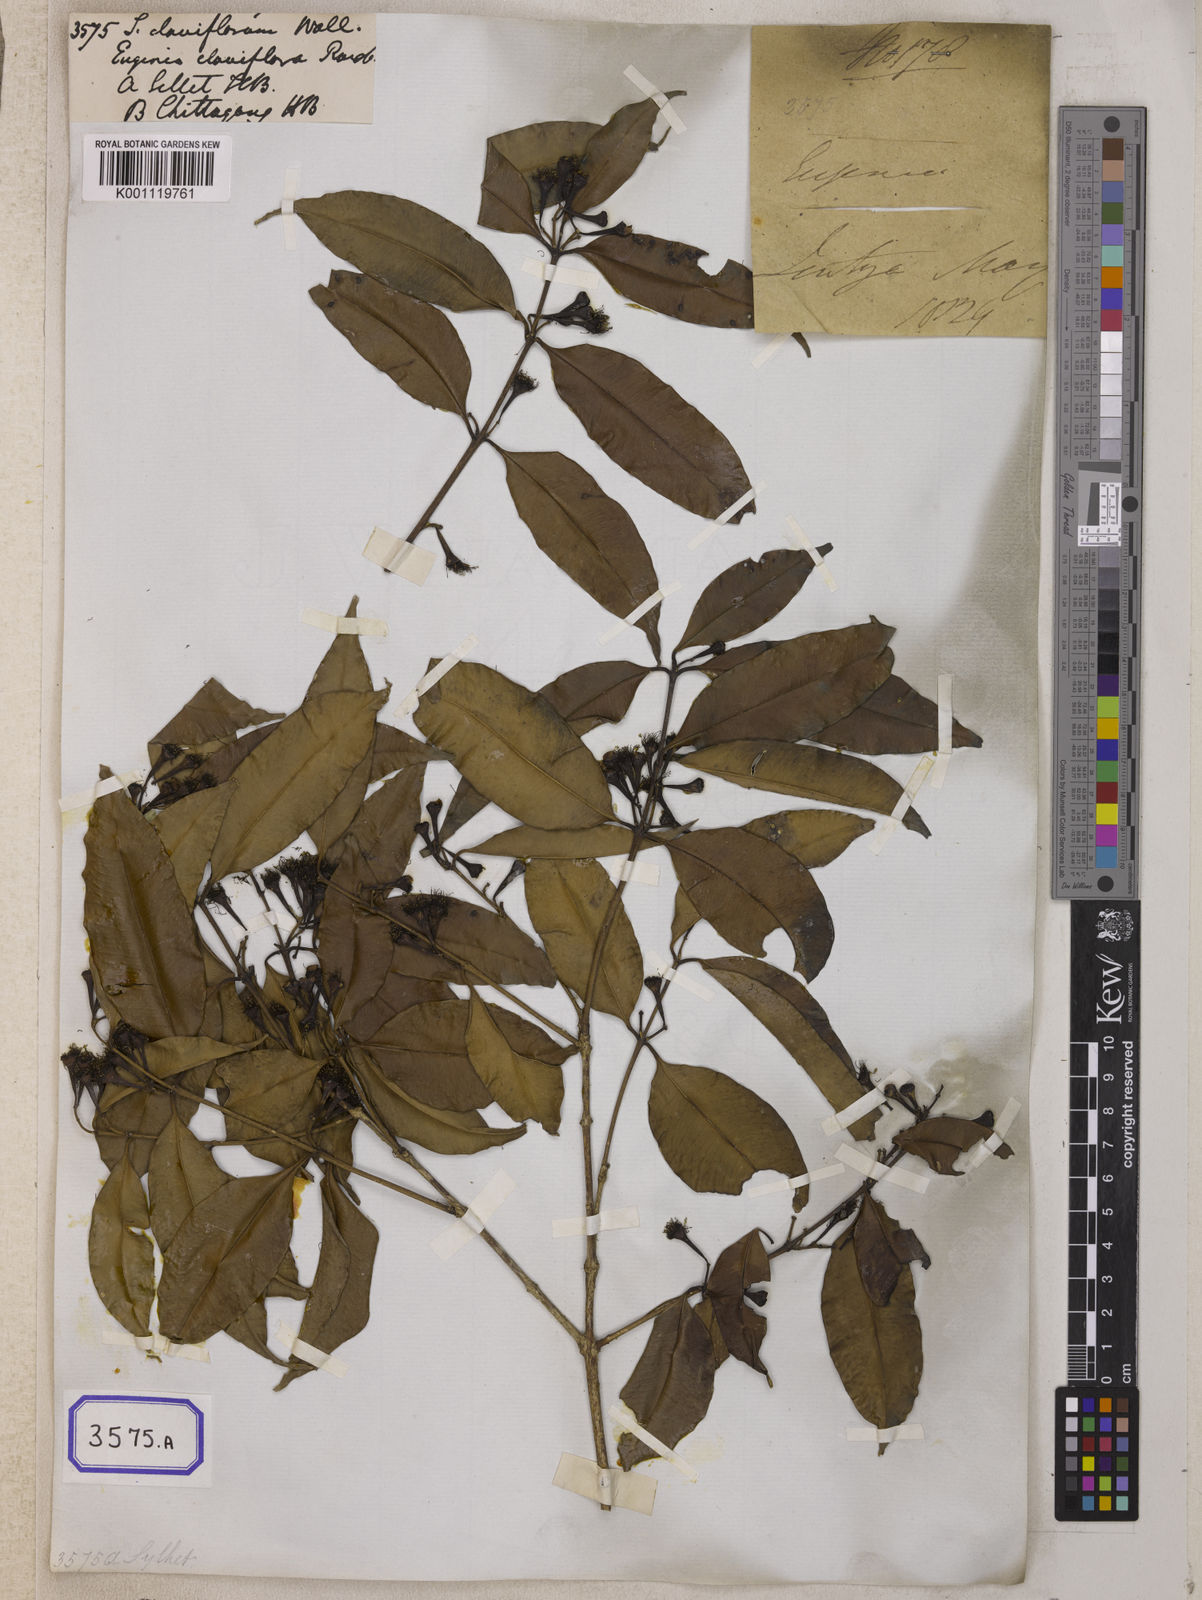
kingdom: Plantae
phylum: Tracheophyta
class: Magnoliopsida
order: Myrtales
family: Myrtaceae
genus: Syzygium
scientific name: Syzygium
